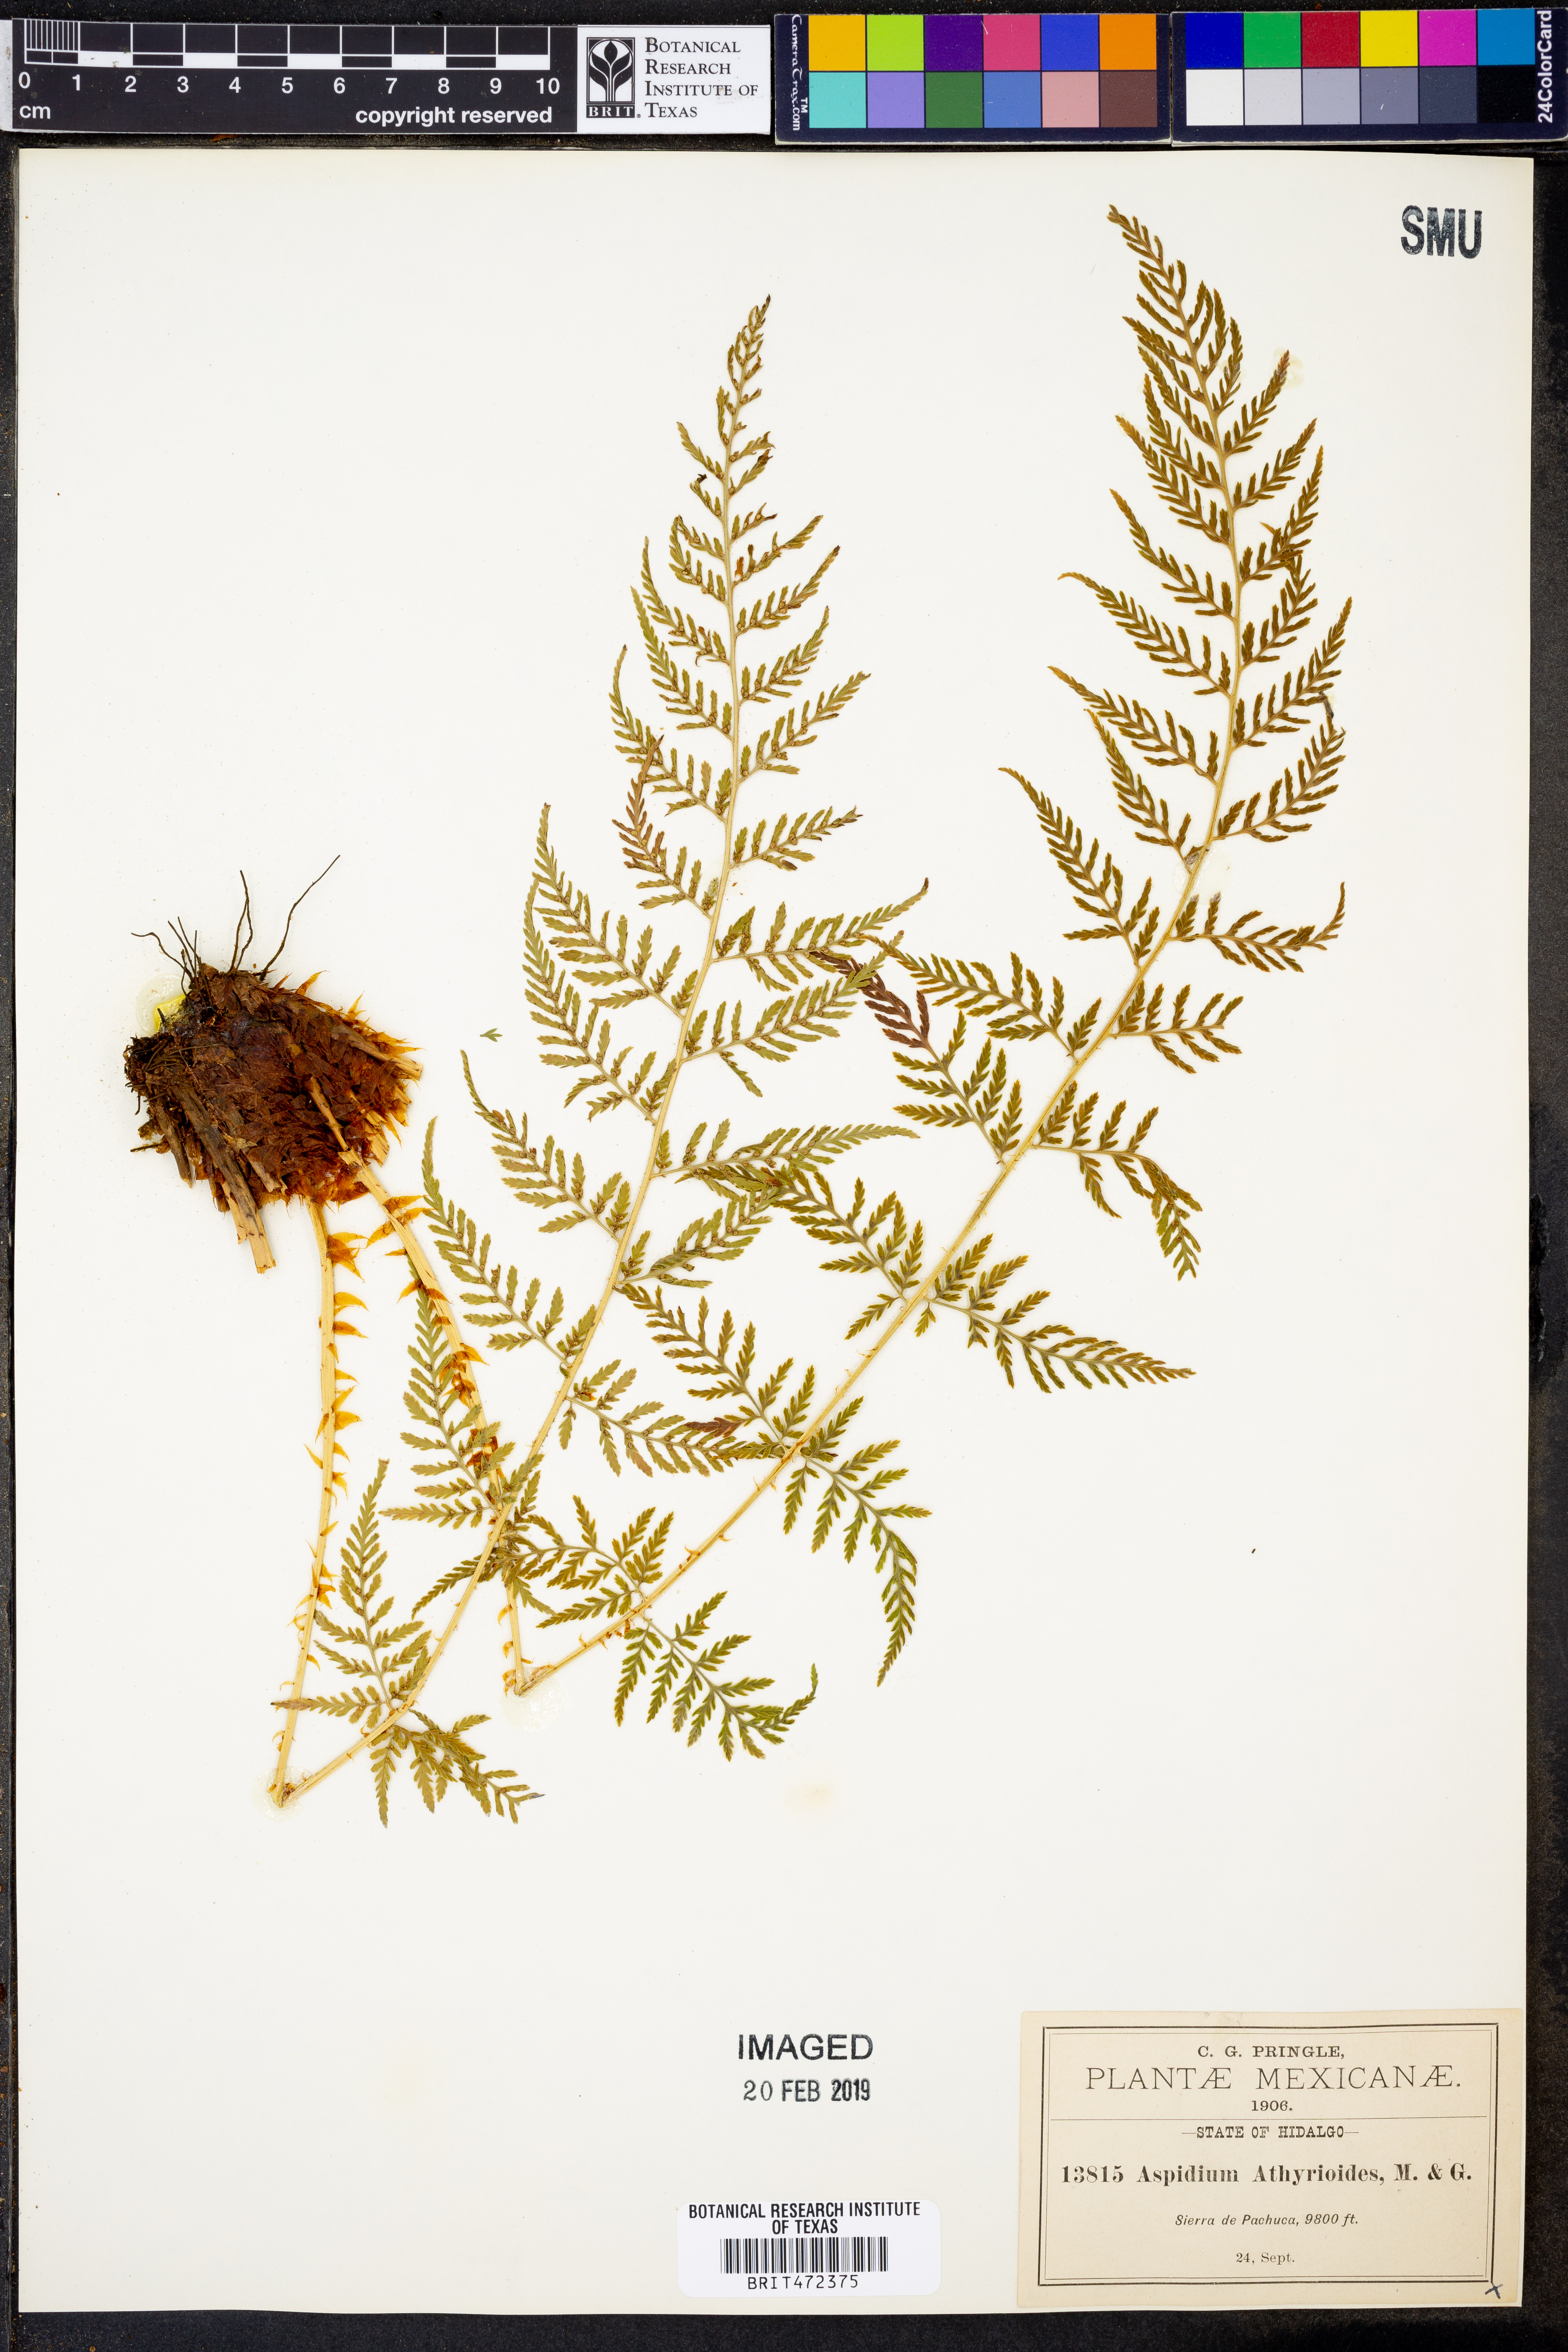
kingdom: Plantae
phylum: Tracheophyta
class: Polypodiopsida
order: Polypodiales
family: Dryopteridaceae
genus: Dryopteris
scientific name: Dryopteris cinnamomea
